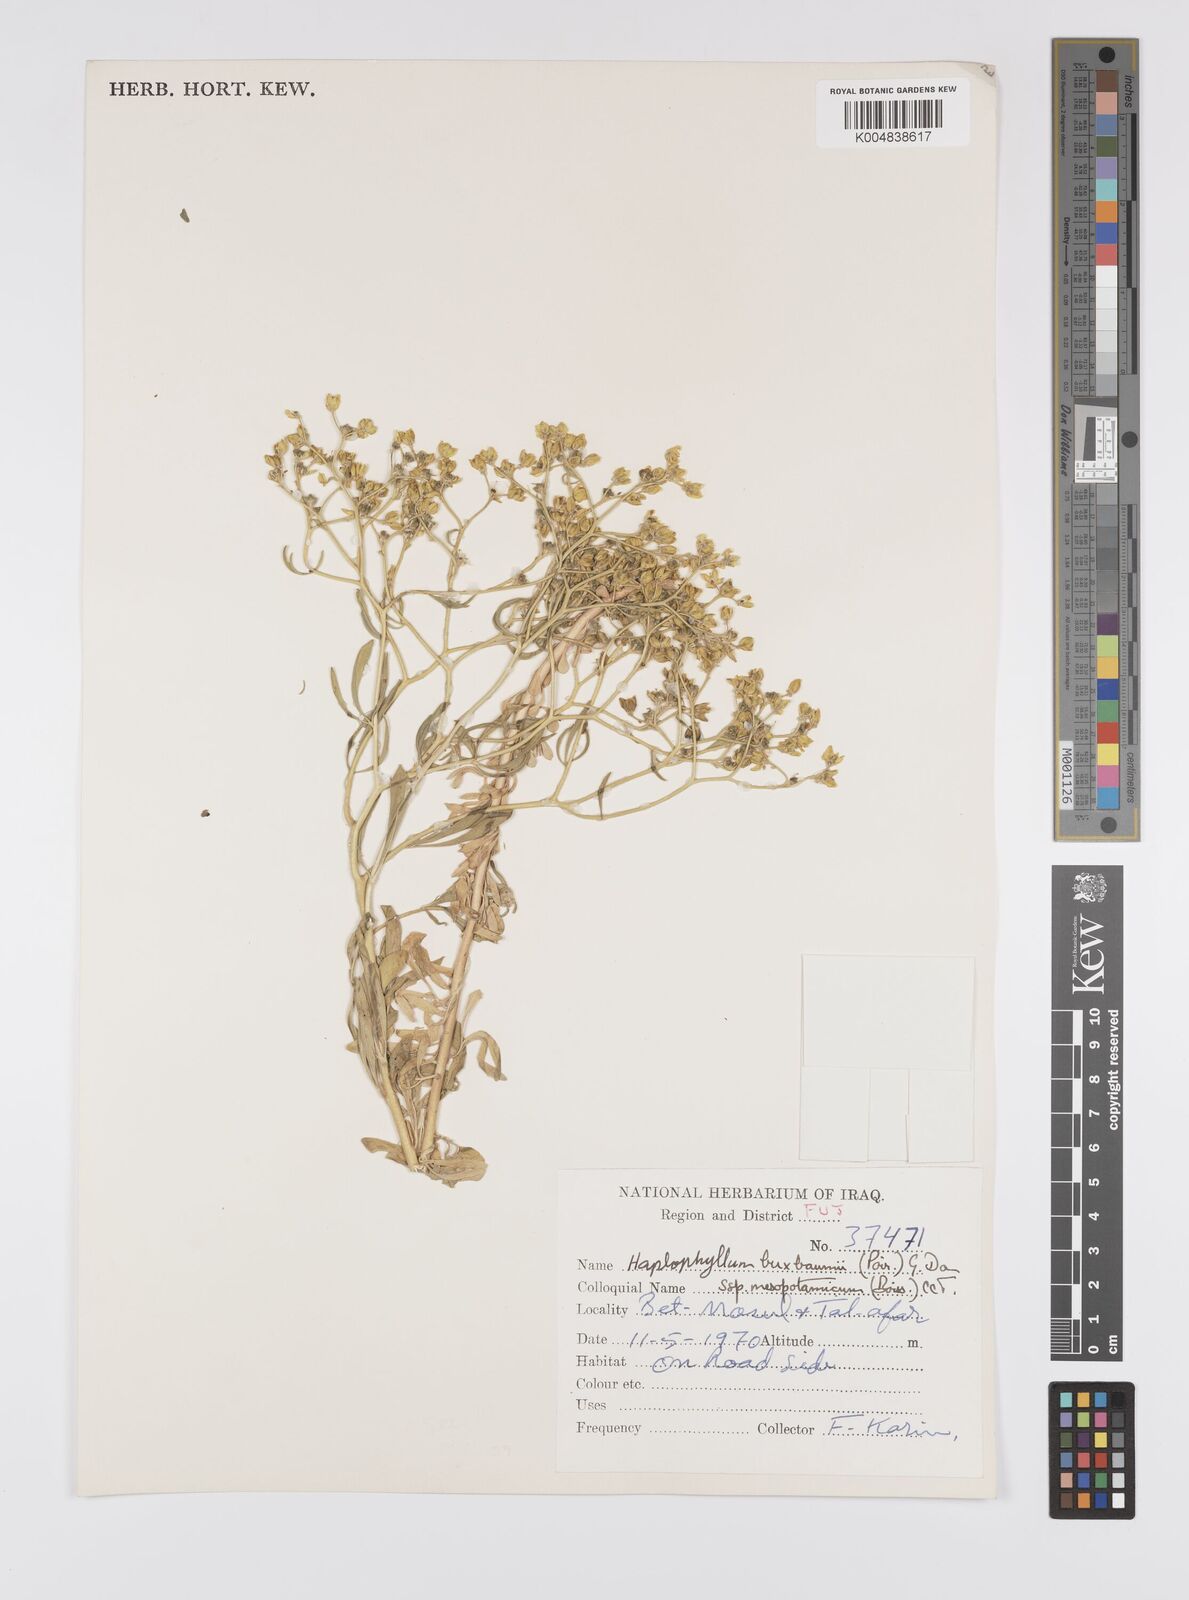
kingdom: Plantae
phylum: Tracheophyta
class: Magnoliopsida
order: Sapindales
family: Rutaceae
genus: Haplophyllum
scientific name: Haplophyllum buxbaumii
